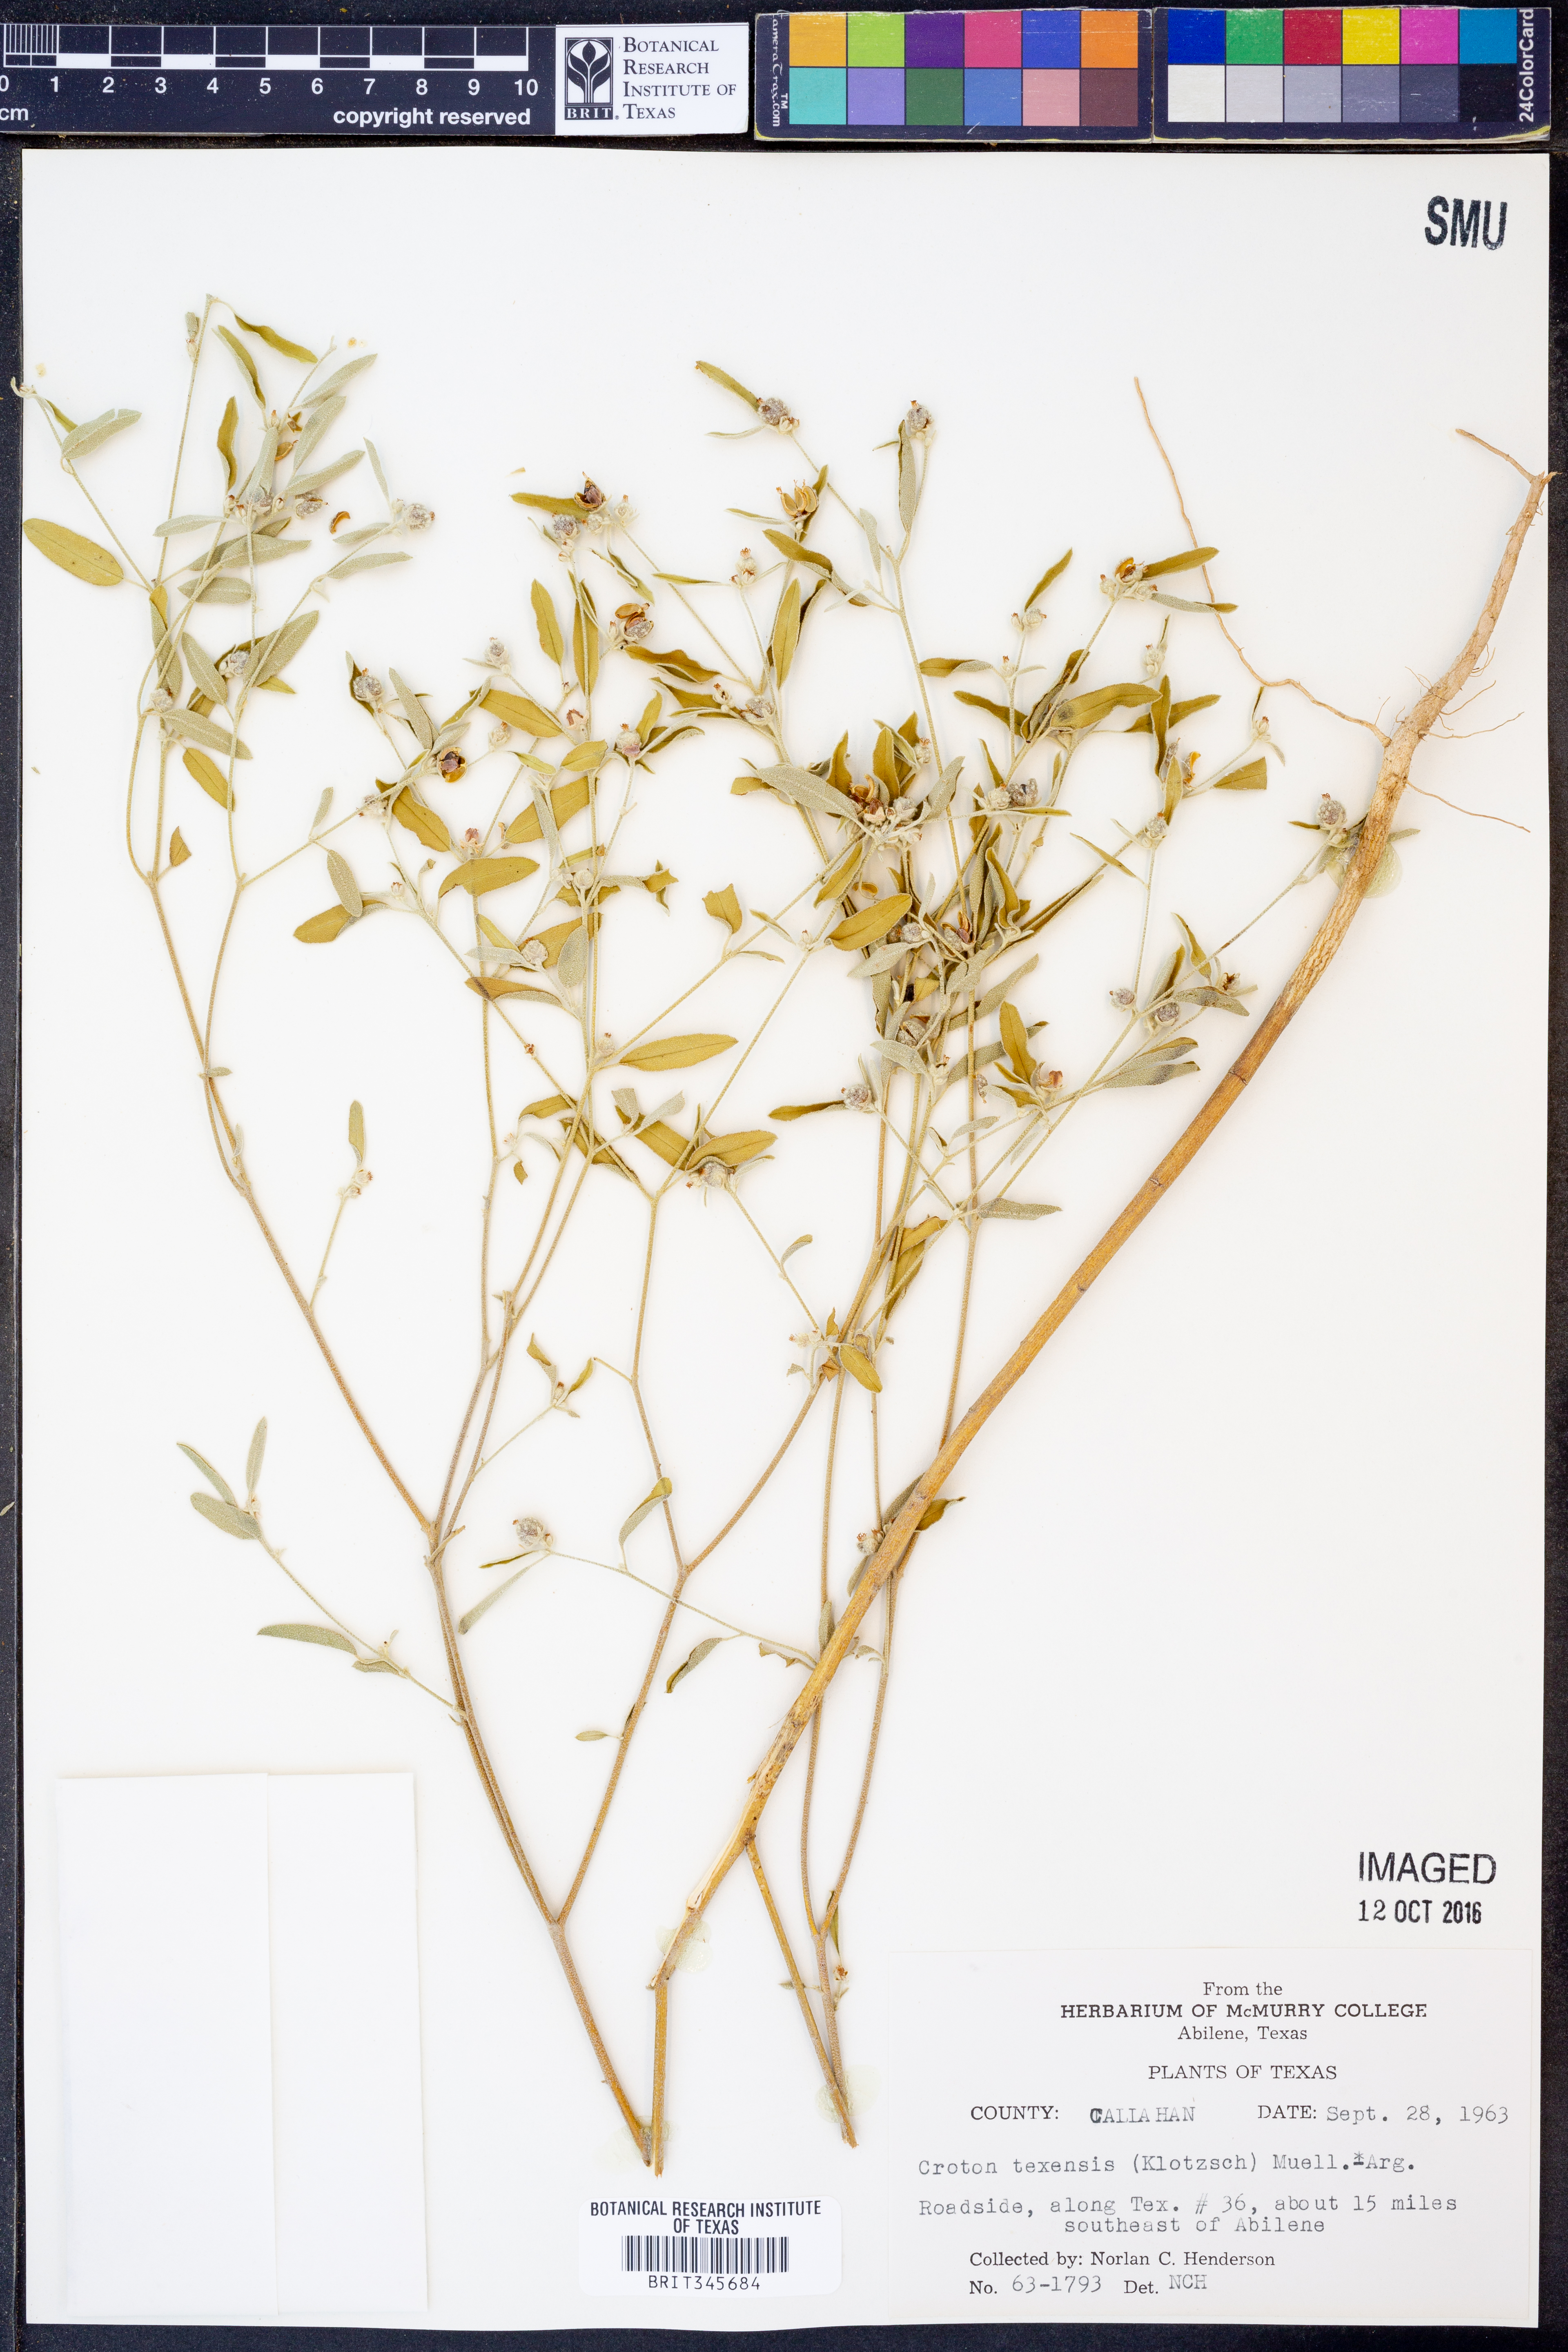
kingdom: Plantae
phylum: Tracheophyta
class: Magnoliopsida
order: Malpighiales
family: Euphorbiaceae
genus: Croton
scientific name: Croton texensis
